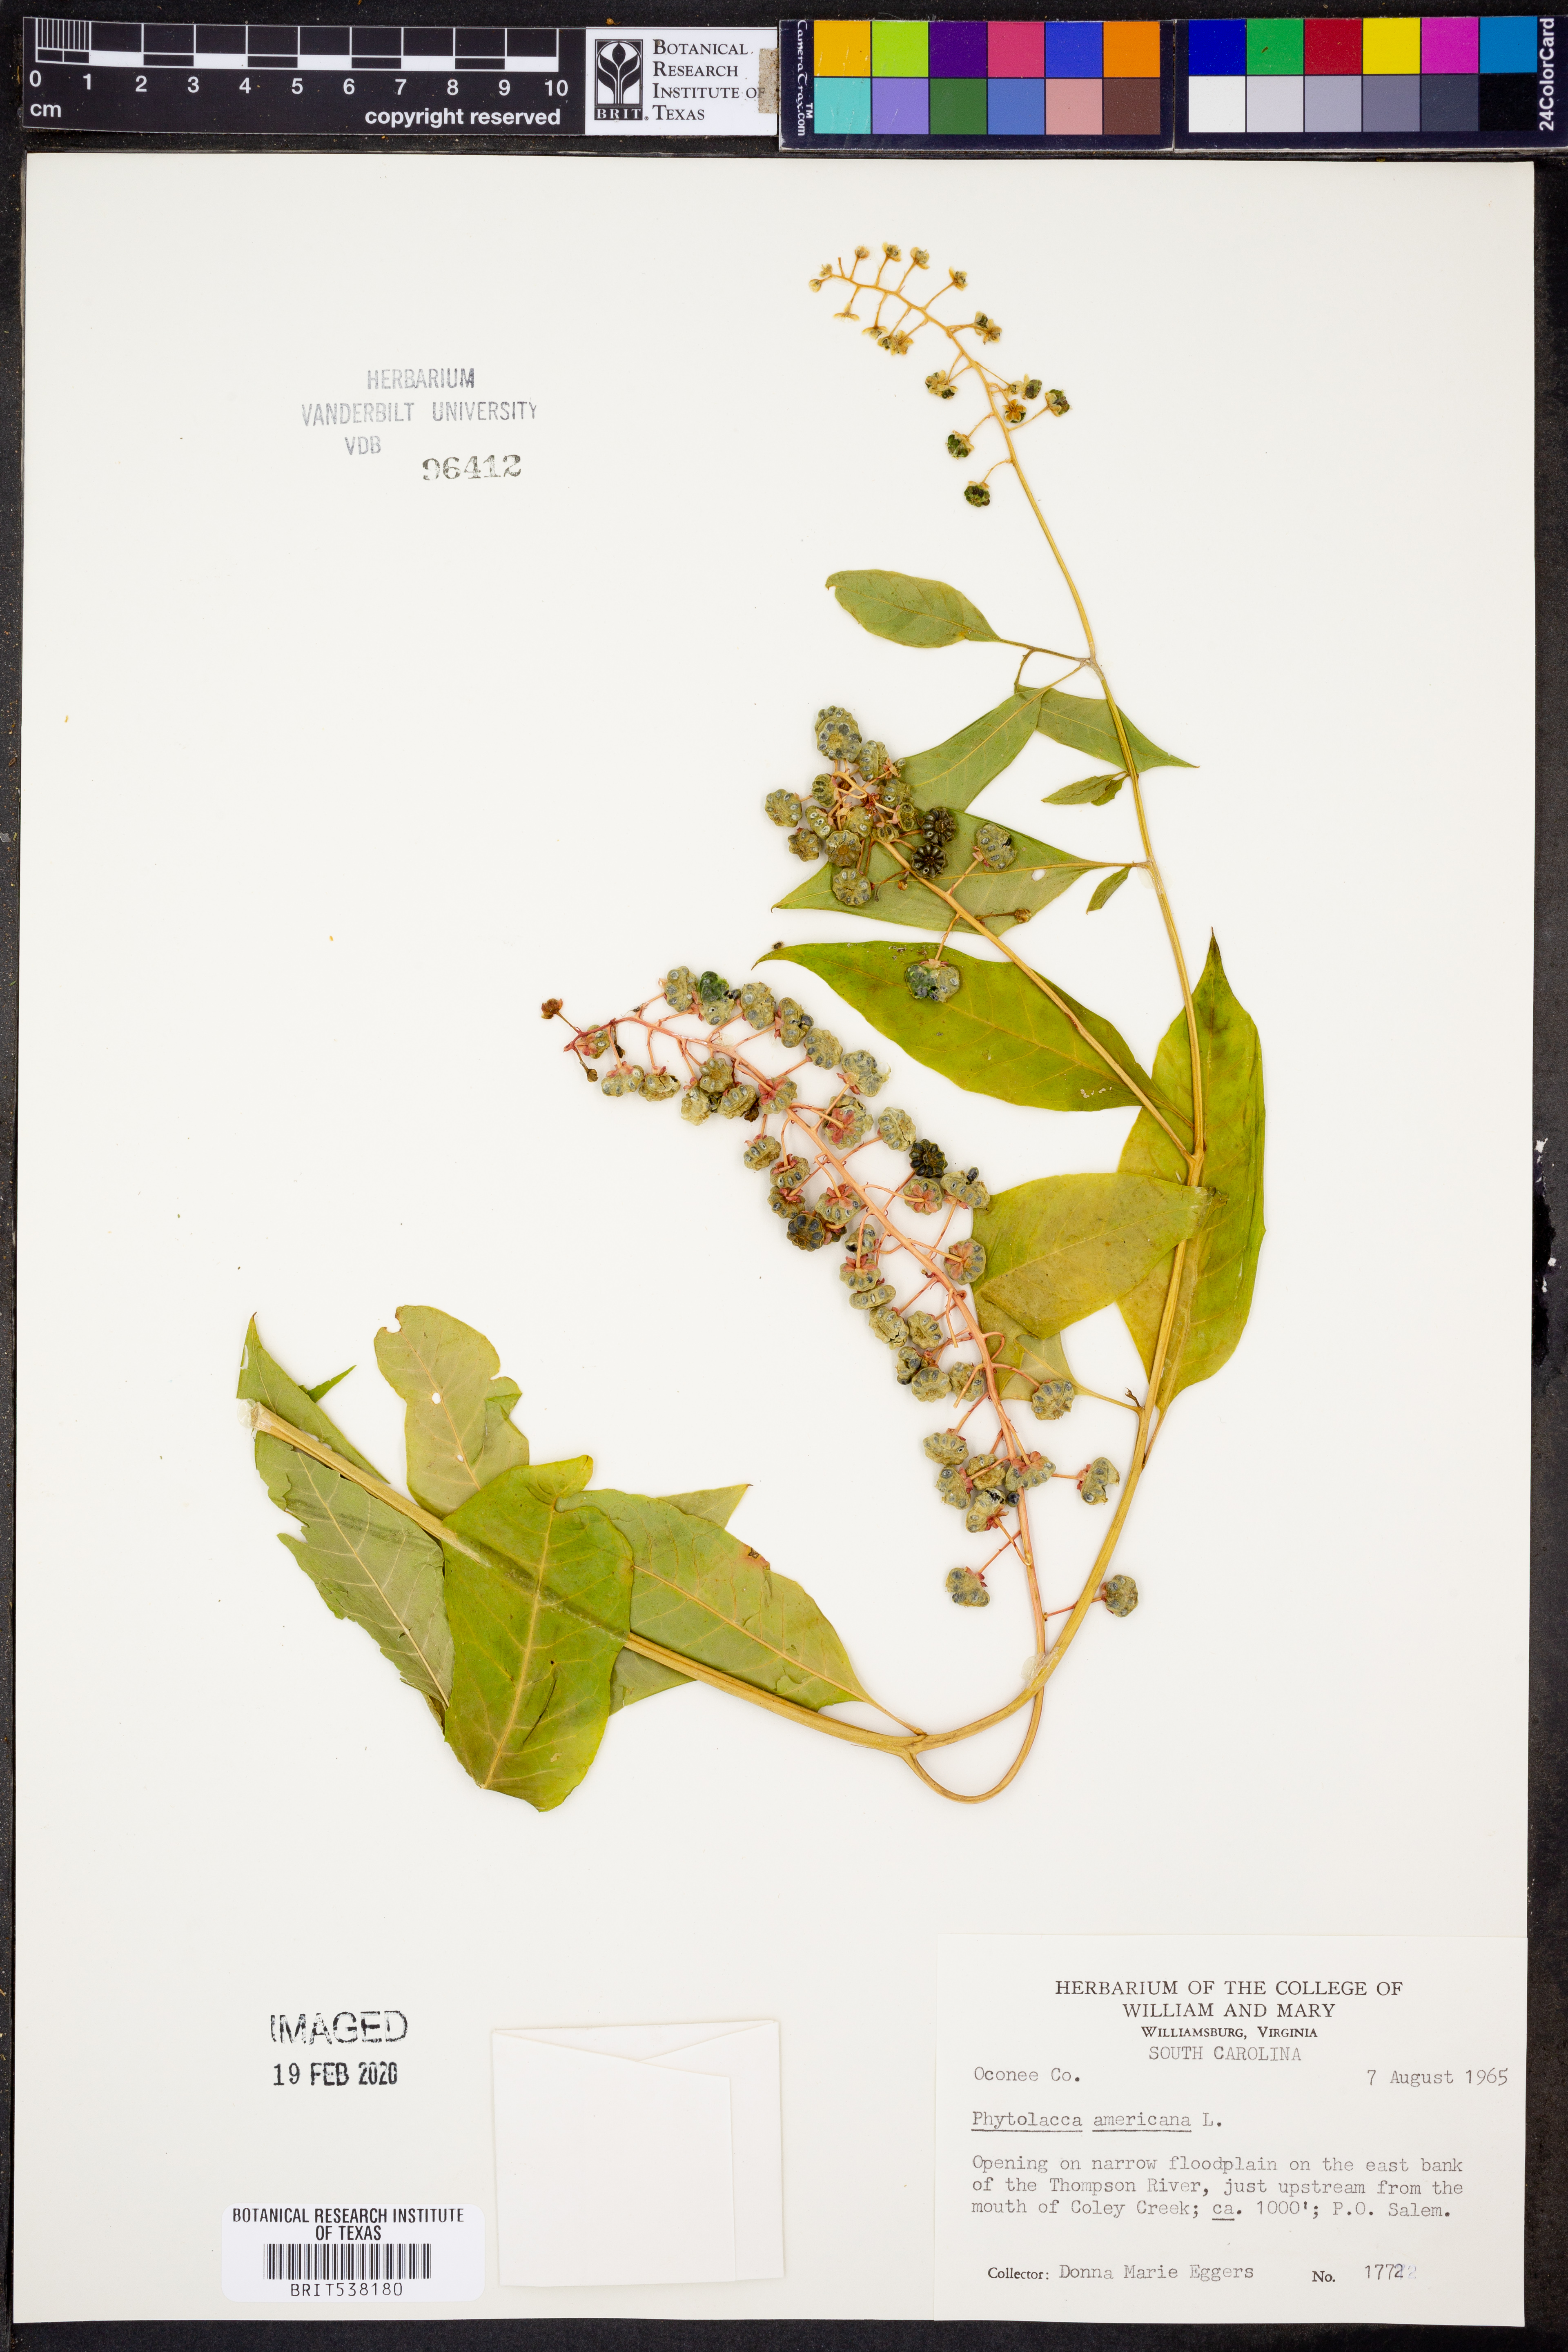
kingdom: Plantae
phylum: Tracheophyta
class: Magnoliopsida
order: Caryophyllales
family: Phytolaccaceae
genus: Phytolacca
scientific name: Phytolacca americana
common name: American pokeweed
